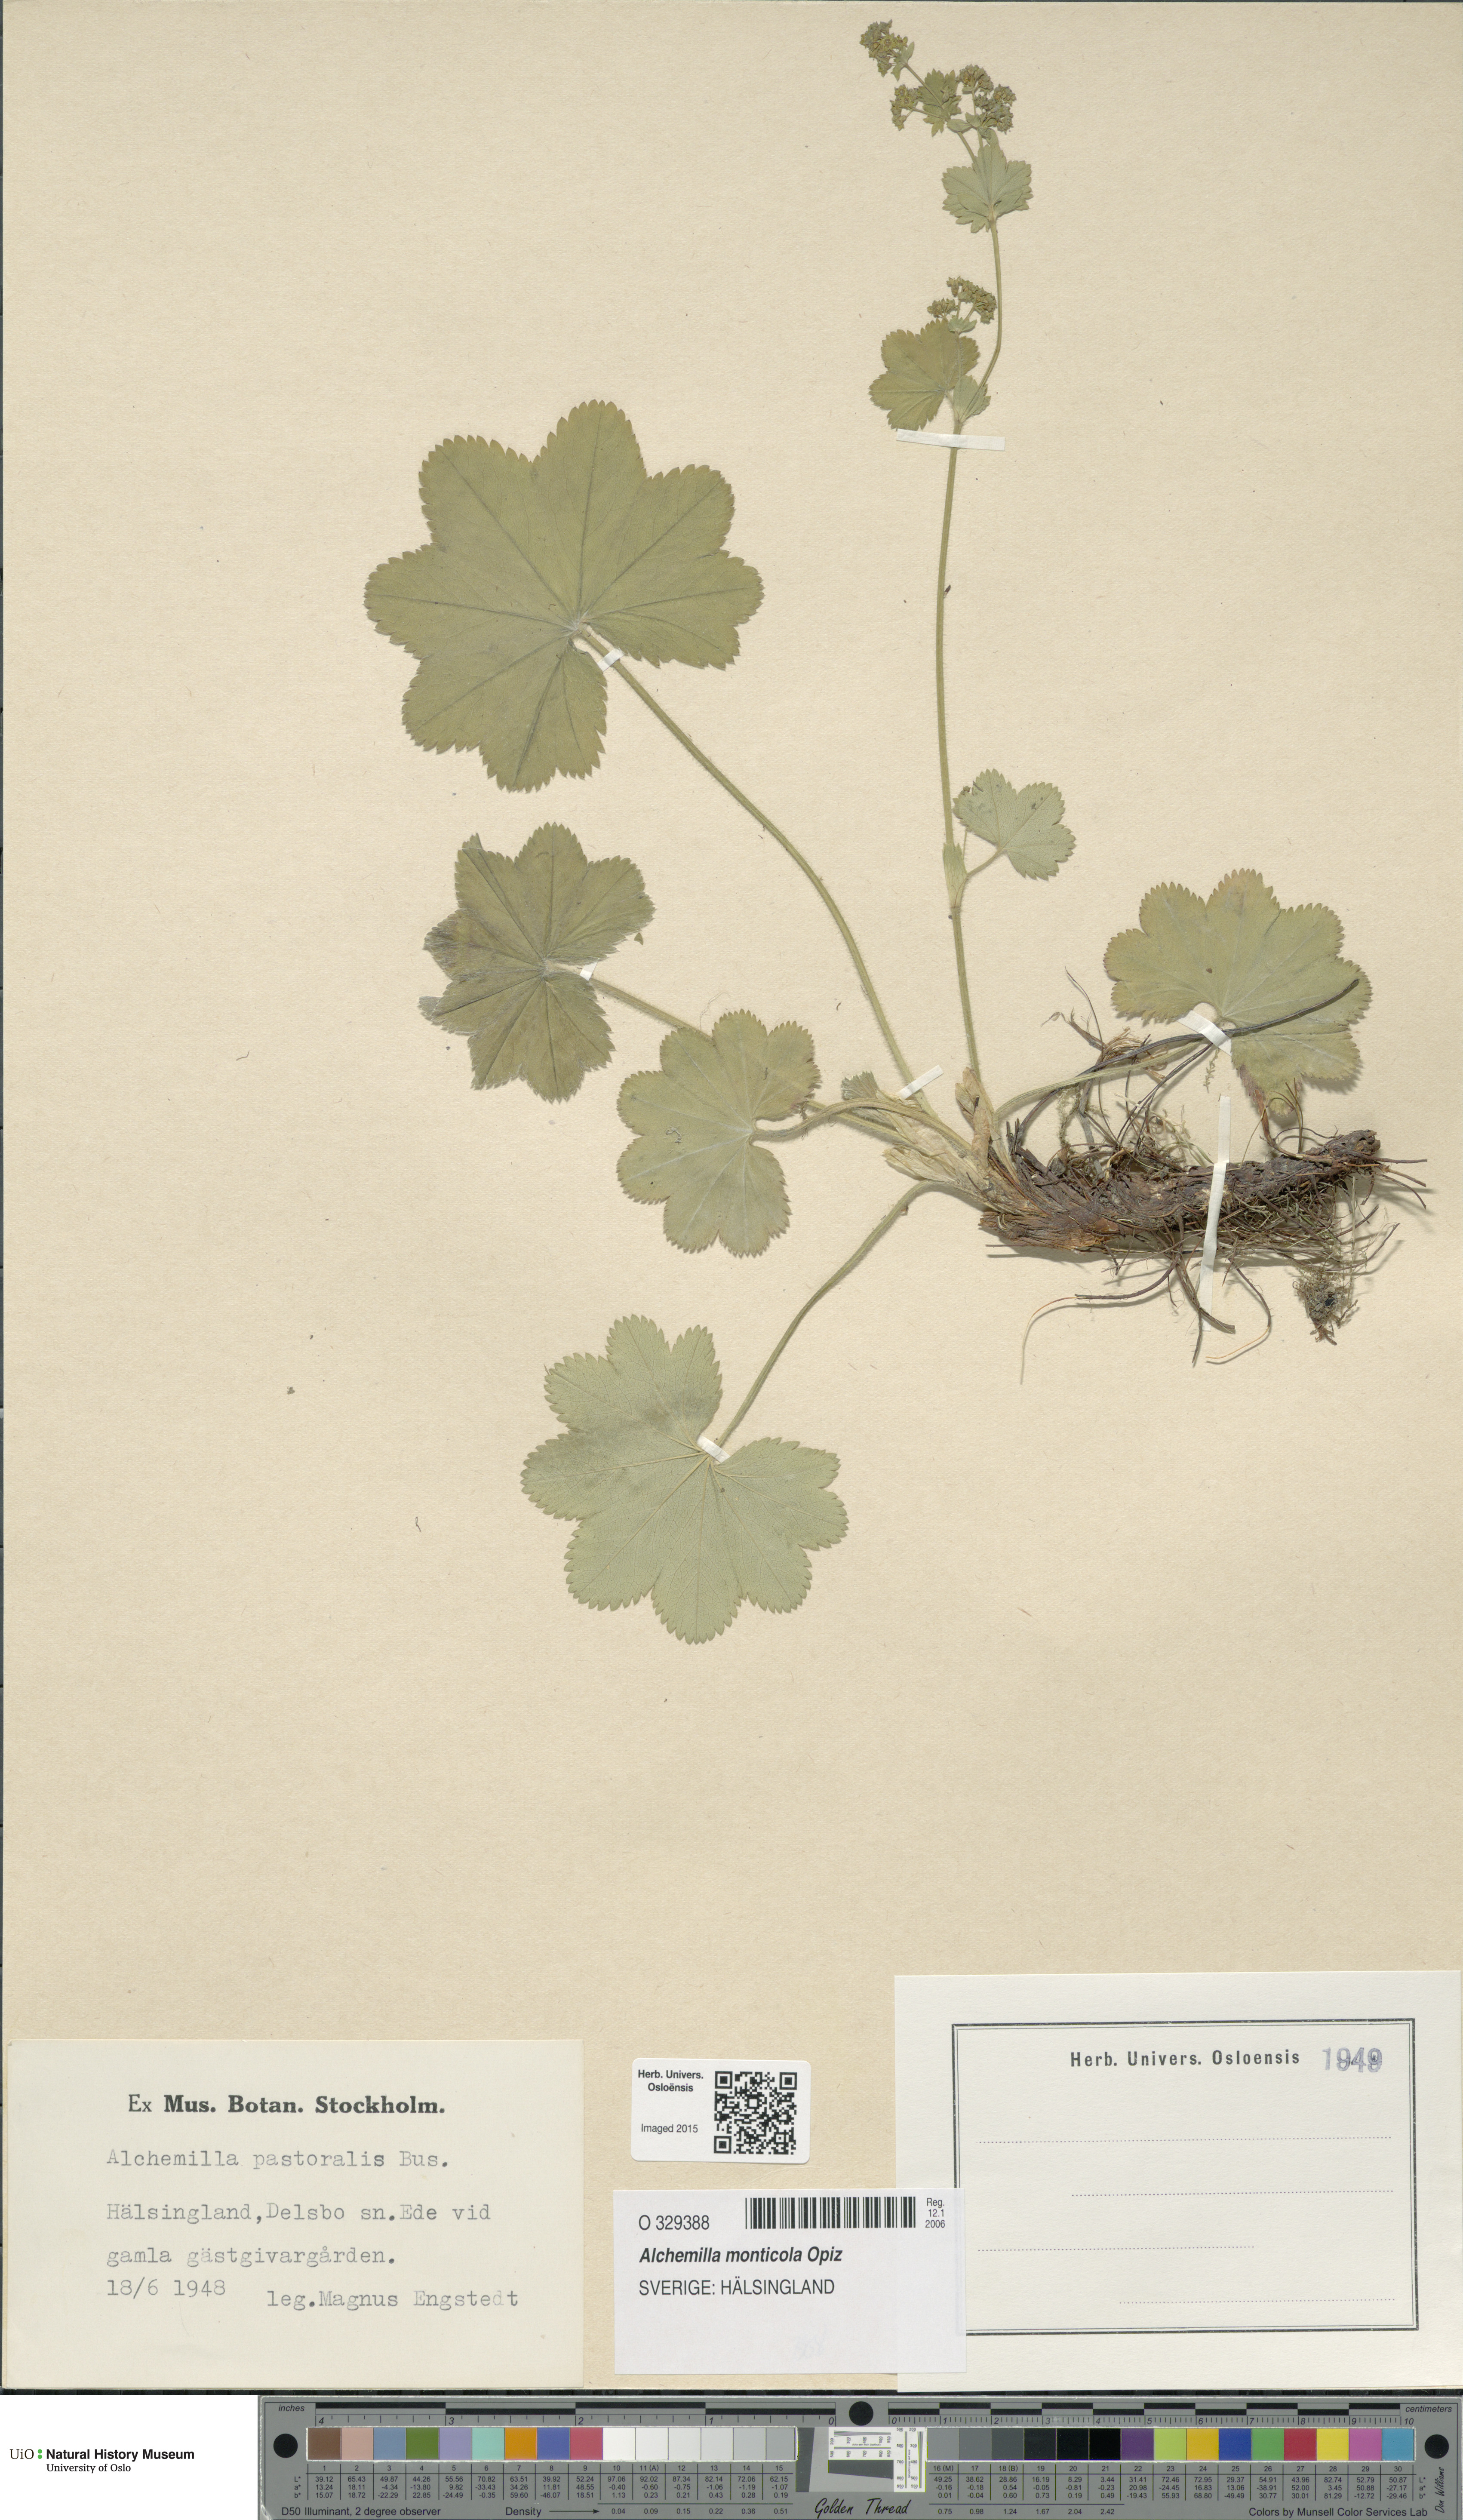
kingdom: Plantae
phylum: Tracheophyta
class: Magnoliopsida
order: Rosales
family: Rosaceae
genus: Alchemilla
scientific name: Alchemilla monticola
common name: Hairy lady's mantle
